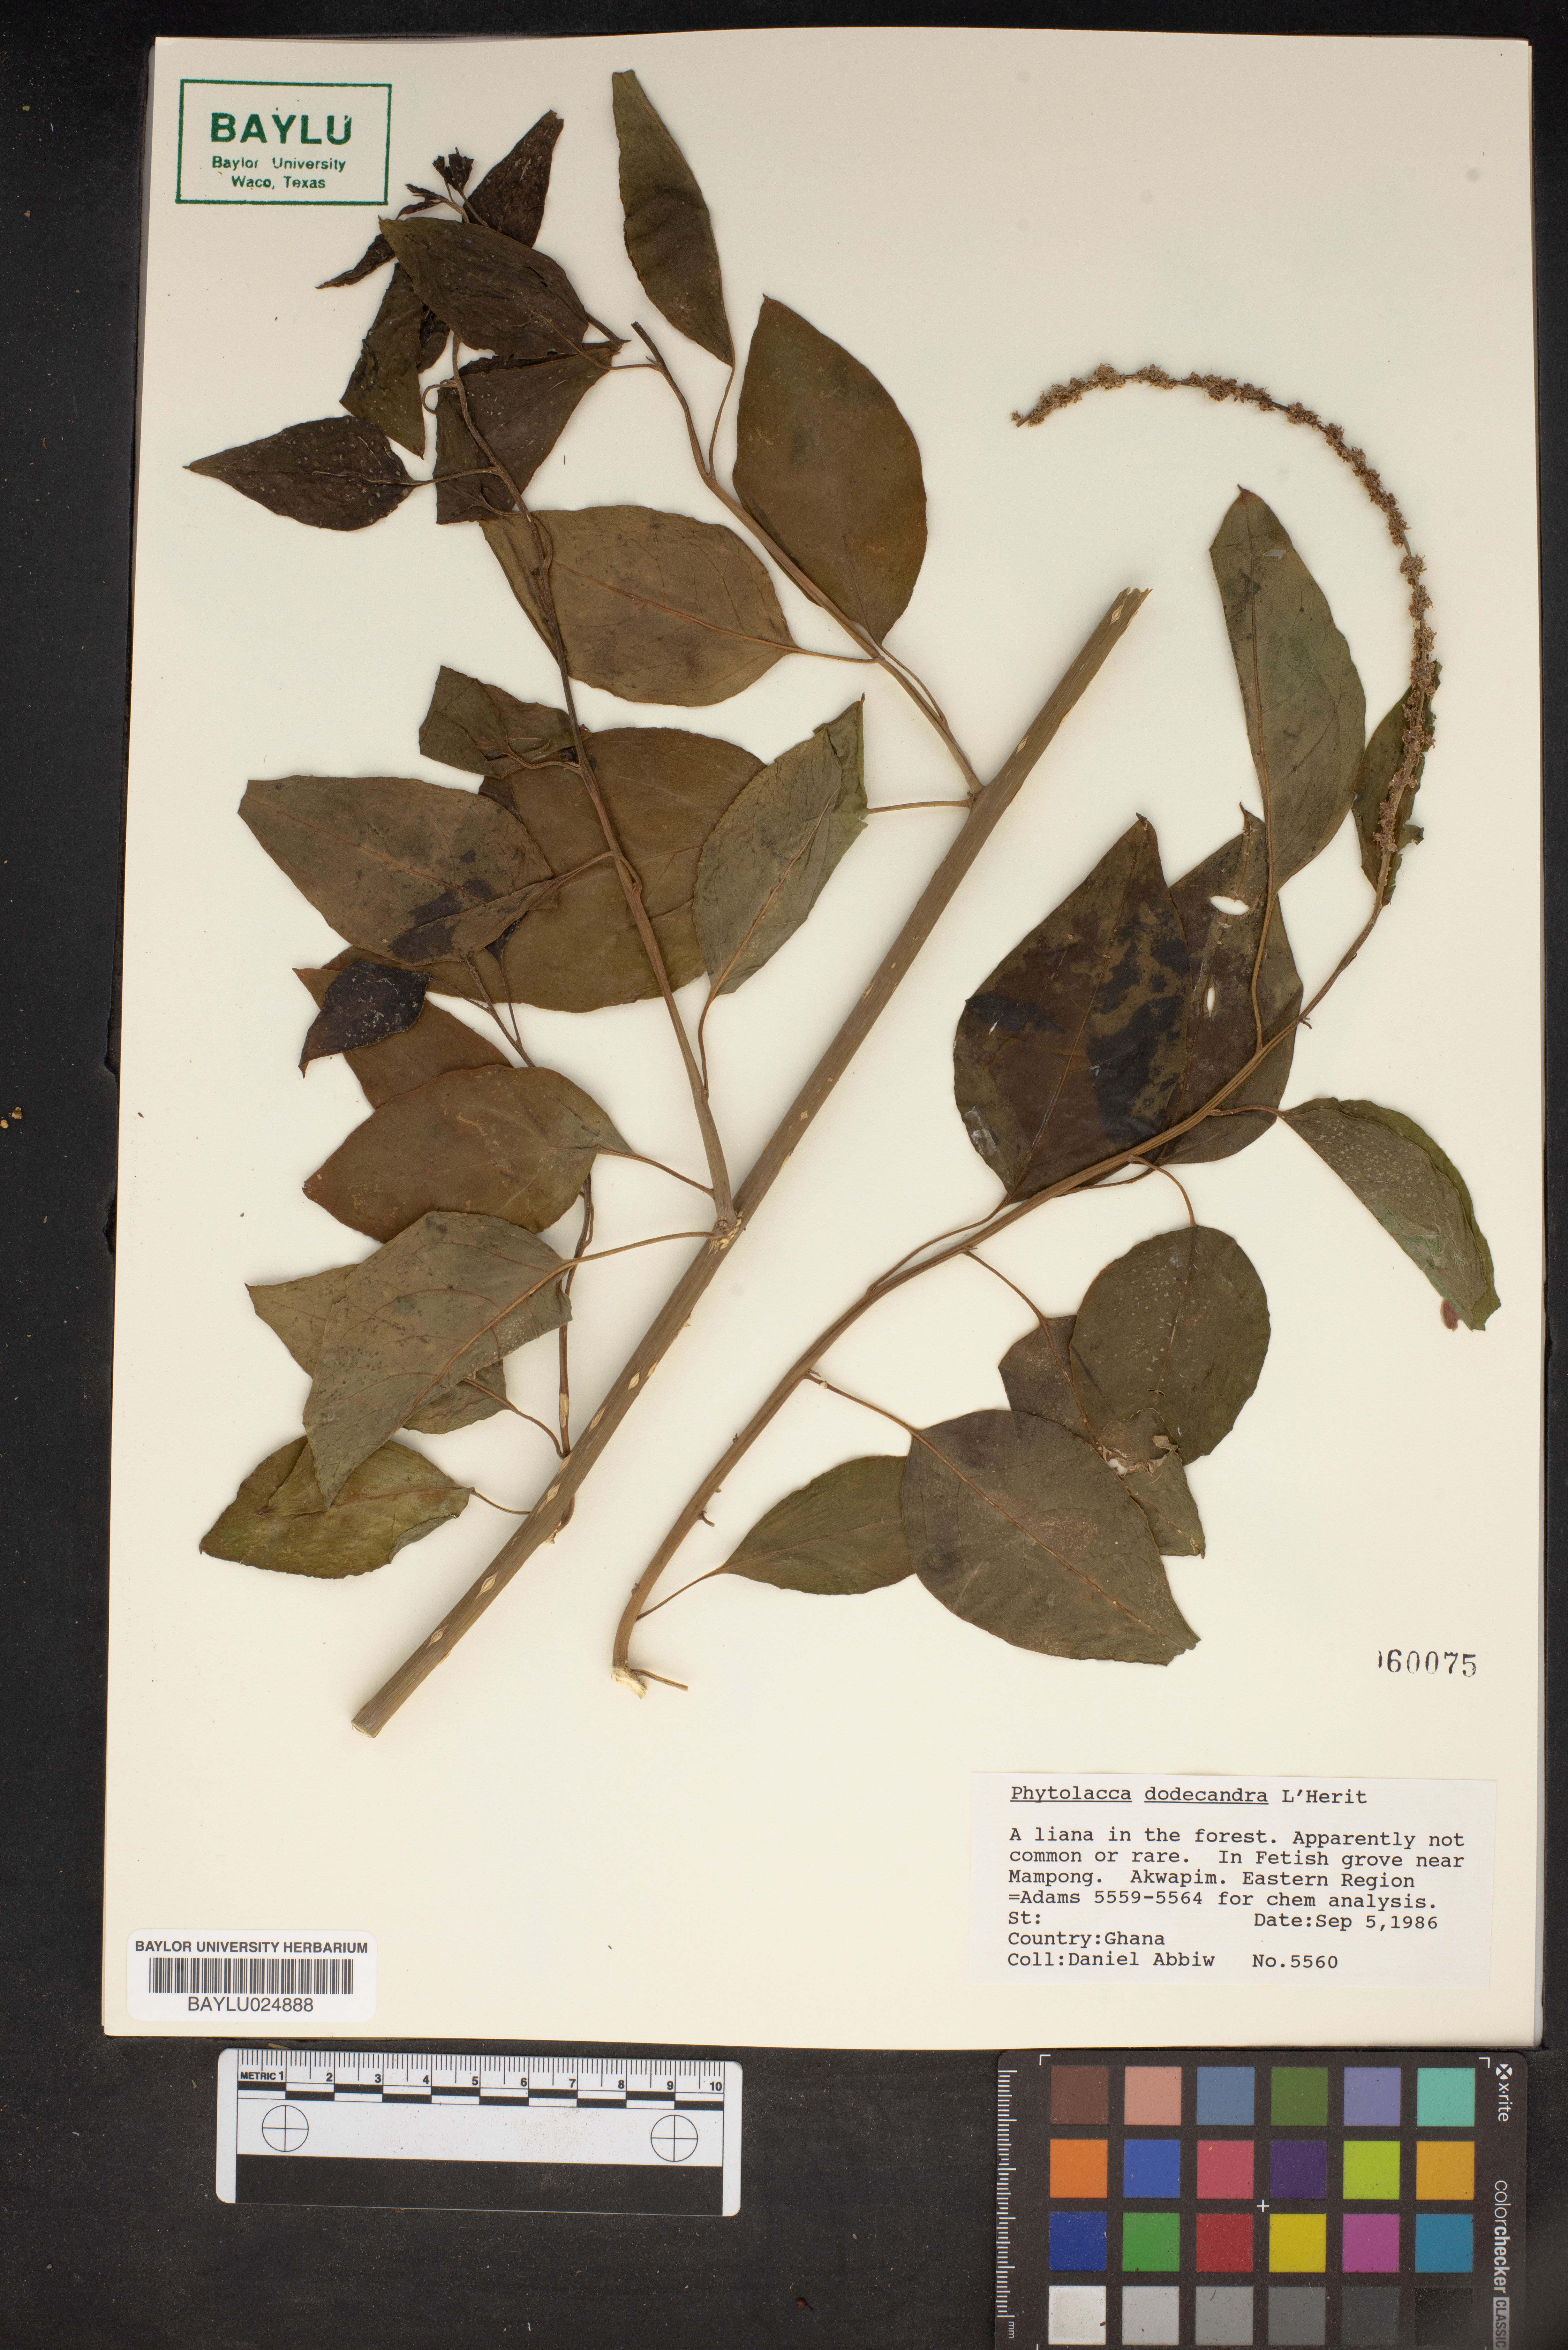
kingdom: Plantae
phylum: Tracheophyta
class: Magnoliopsida
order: Caryophyllales
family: Phytolaccaceae
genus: Phytolacca
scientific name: Phytolacca dodecandra
